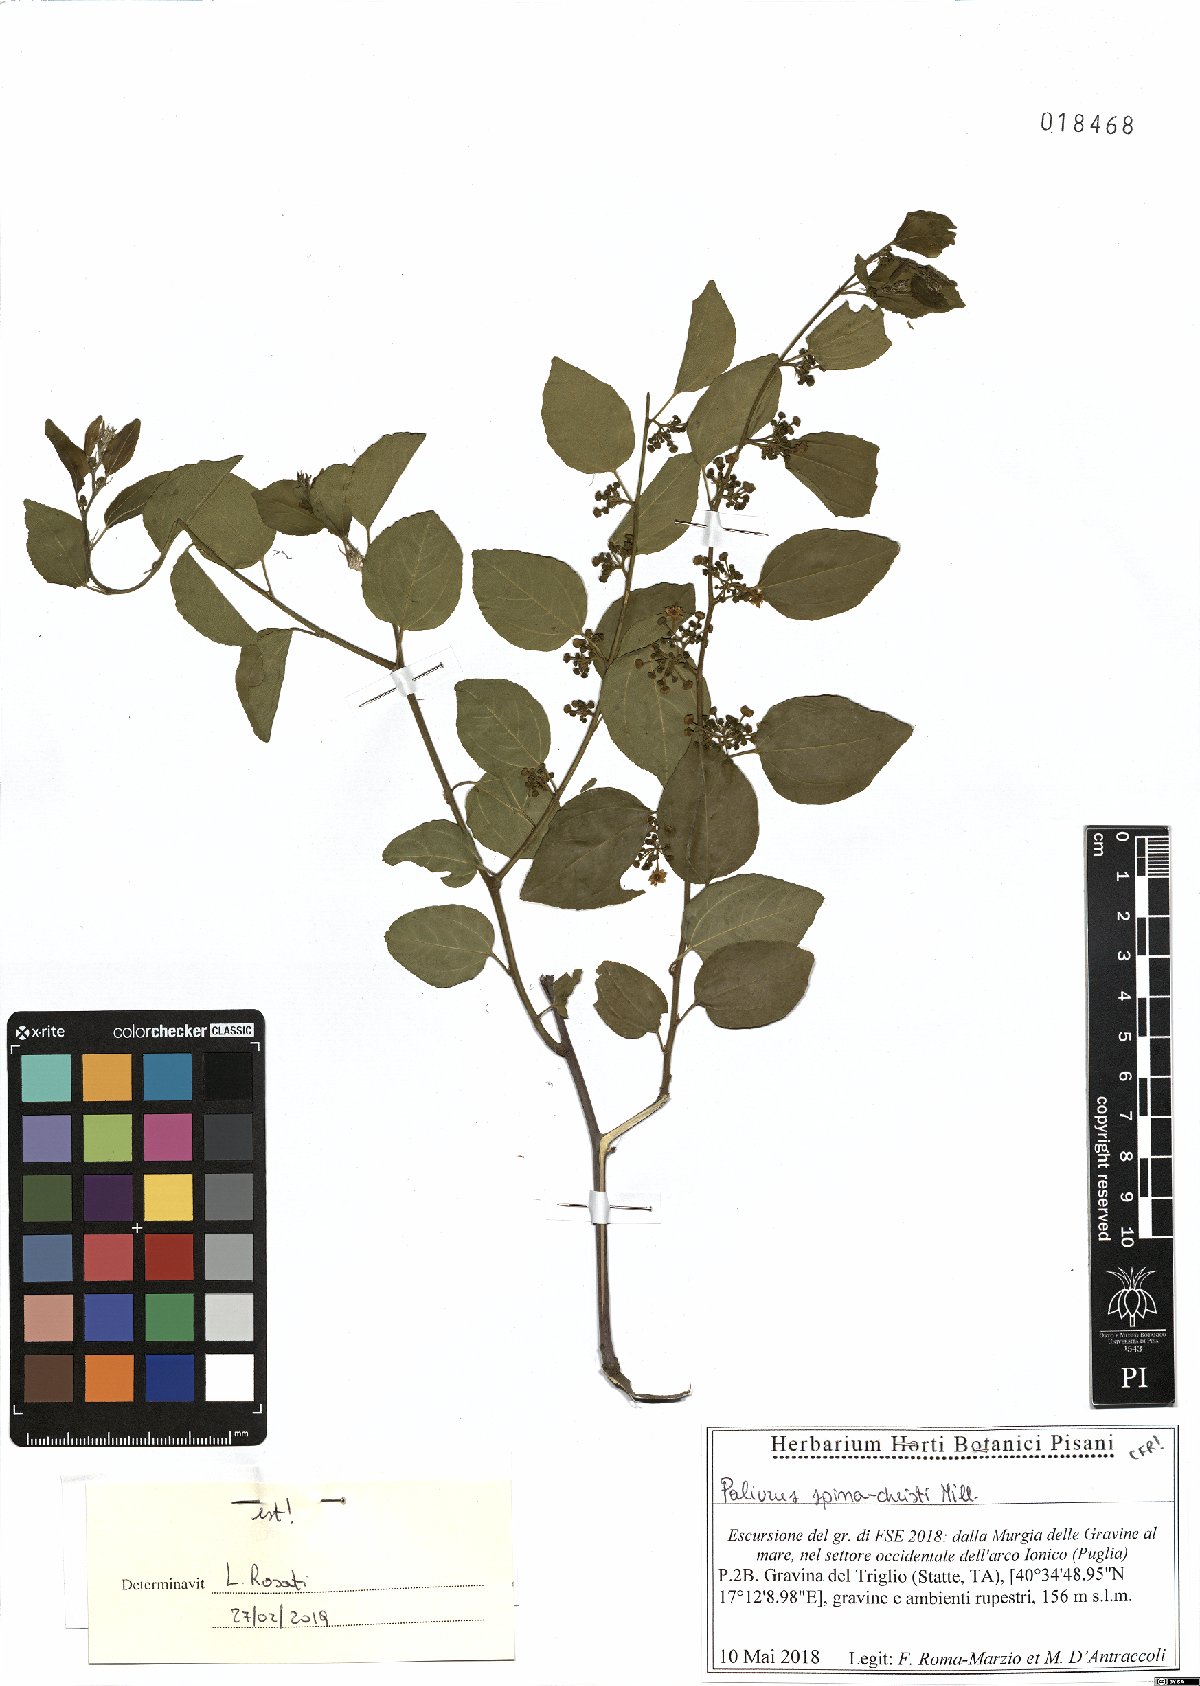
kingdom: Plantae
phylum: Tracheophyta
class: Magnoliopsida
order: Rosales
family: Rhamnaceae
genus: Paliurus
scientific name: Paliurus spina-christi
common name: Jeruselem thorn
